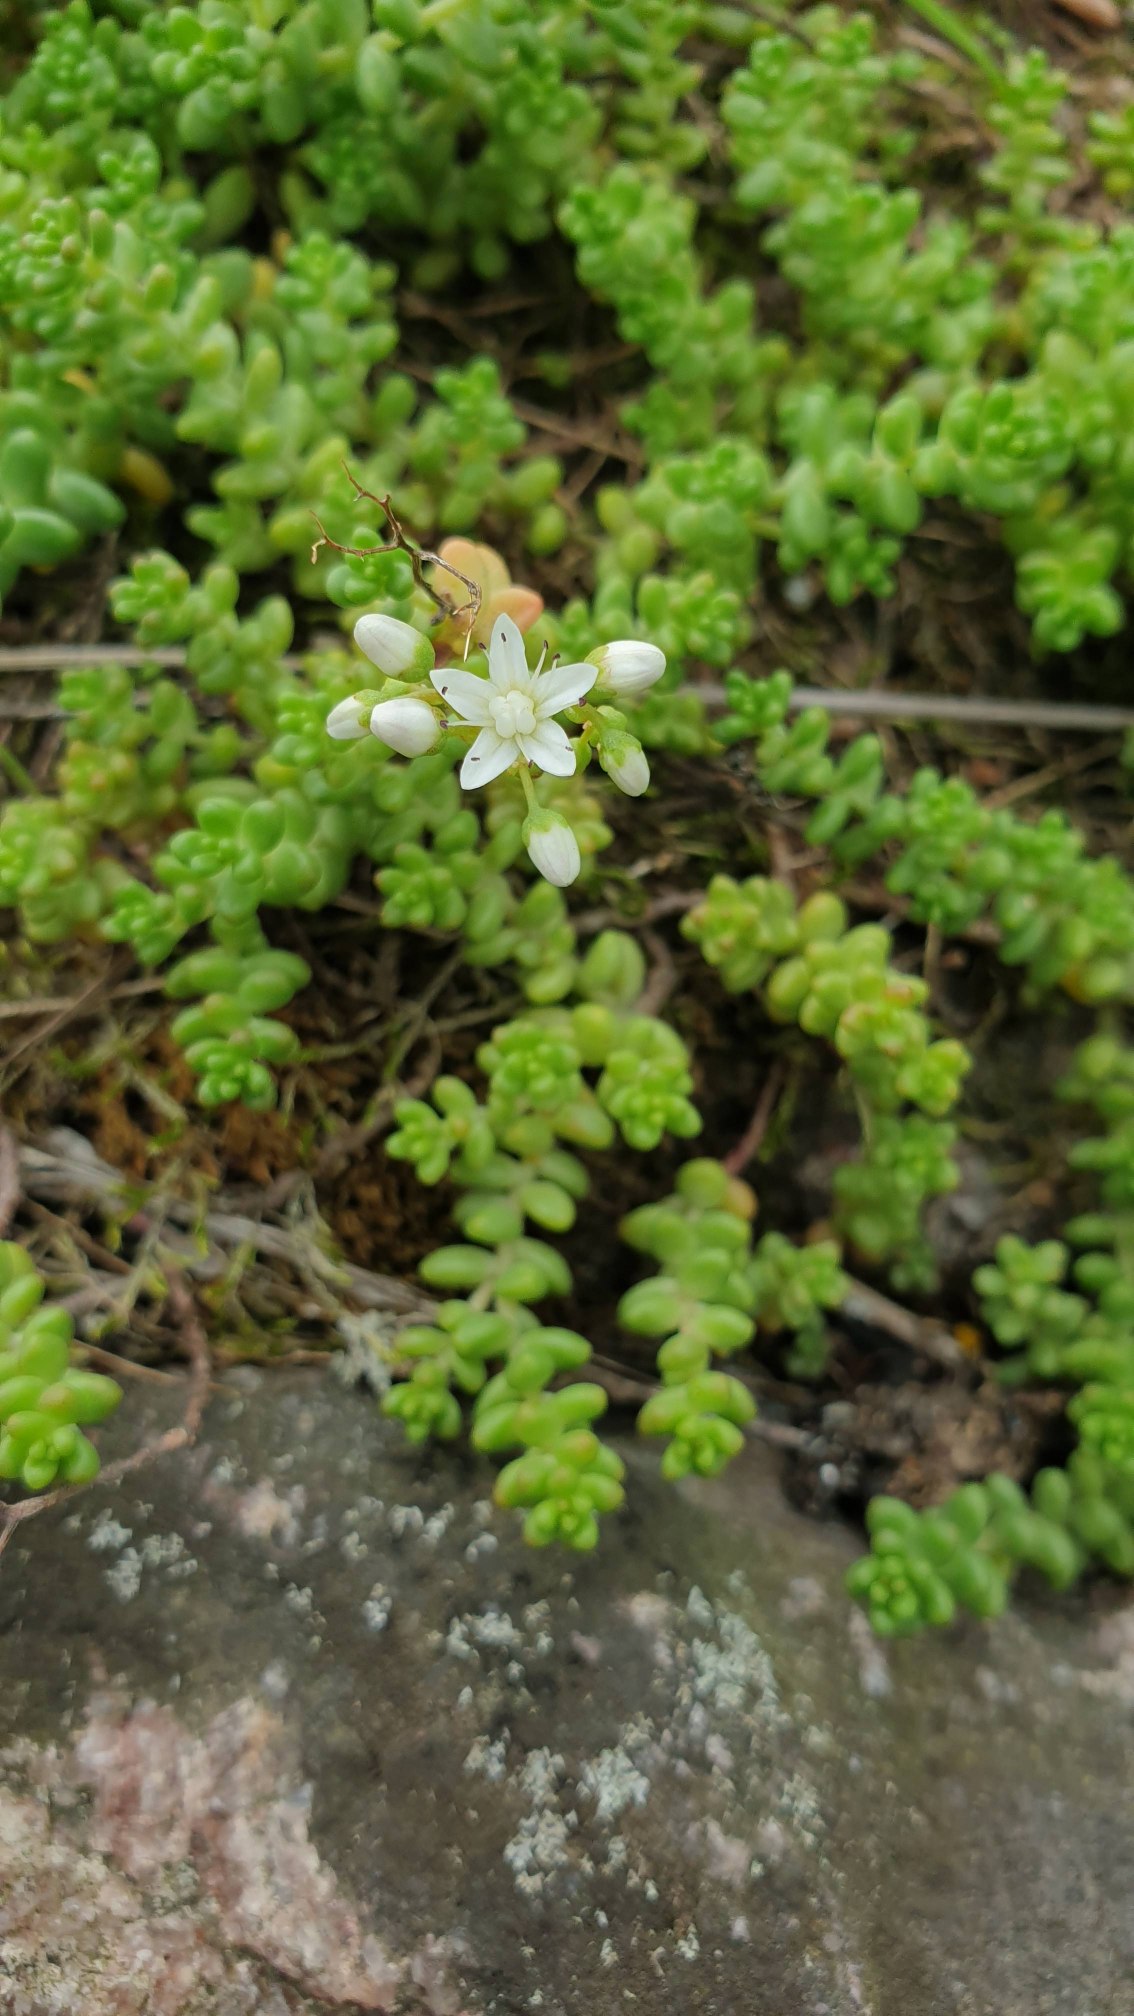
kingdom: Plantae
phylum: Tracheophyta
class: Magnoliopsida
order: Saxifragales
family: Crassulaceae
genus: Sedum
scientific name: Sedum album
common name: Hvid stenurt
